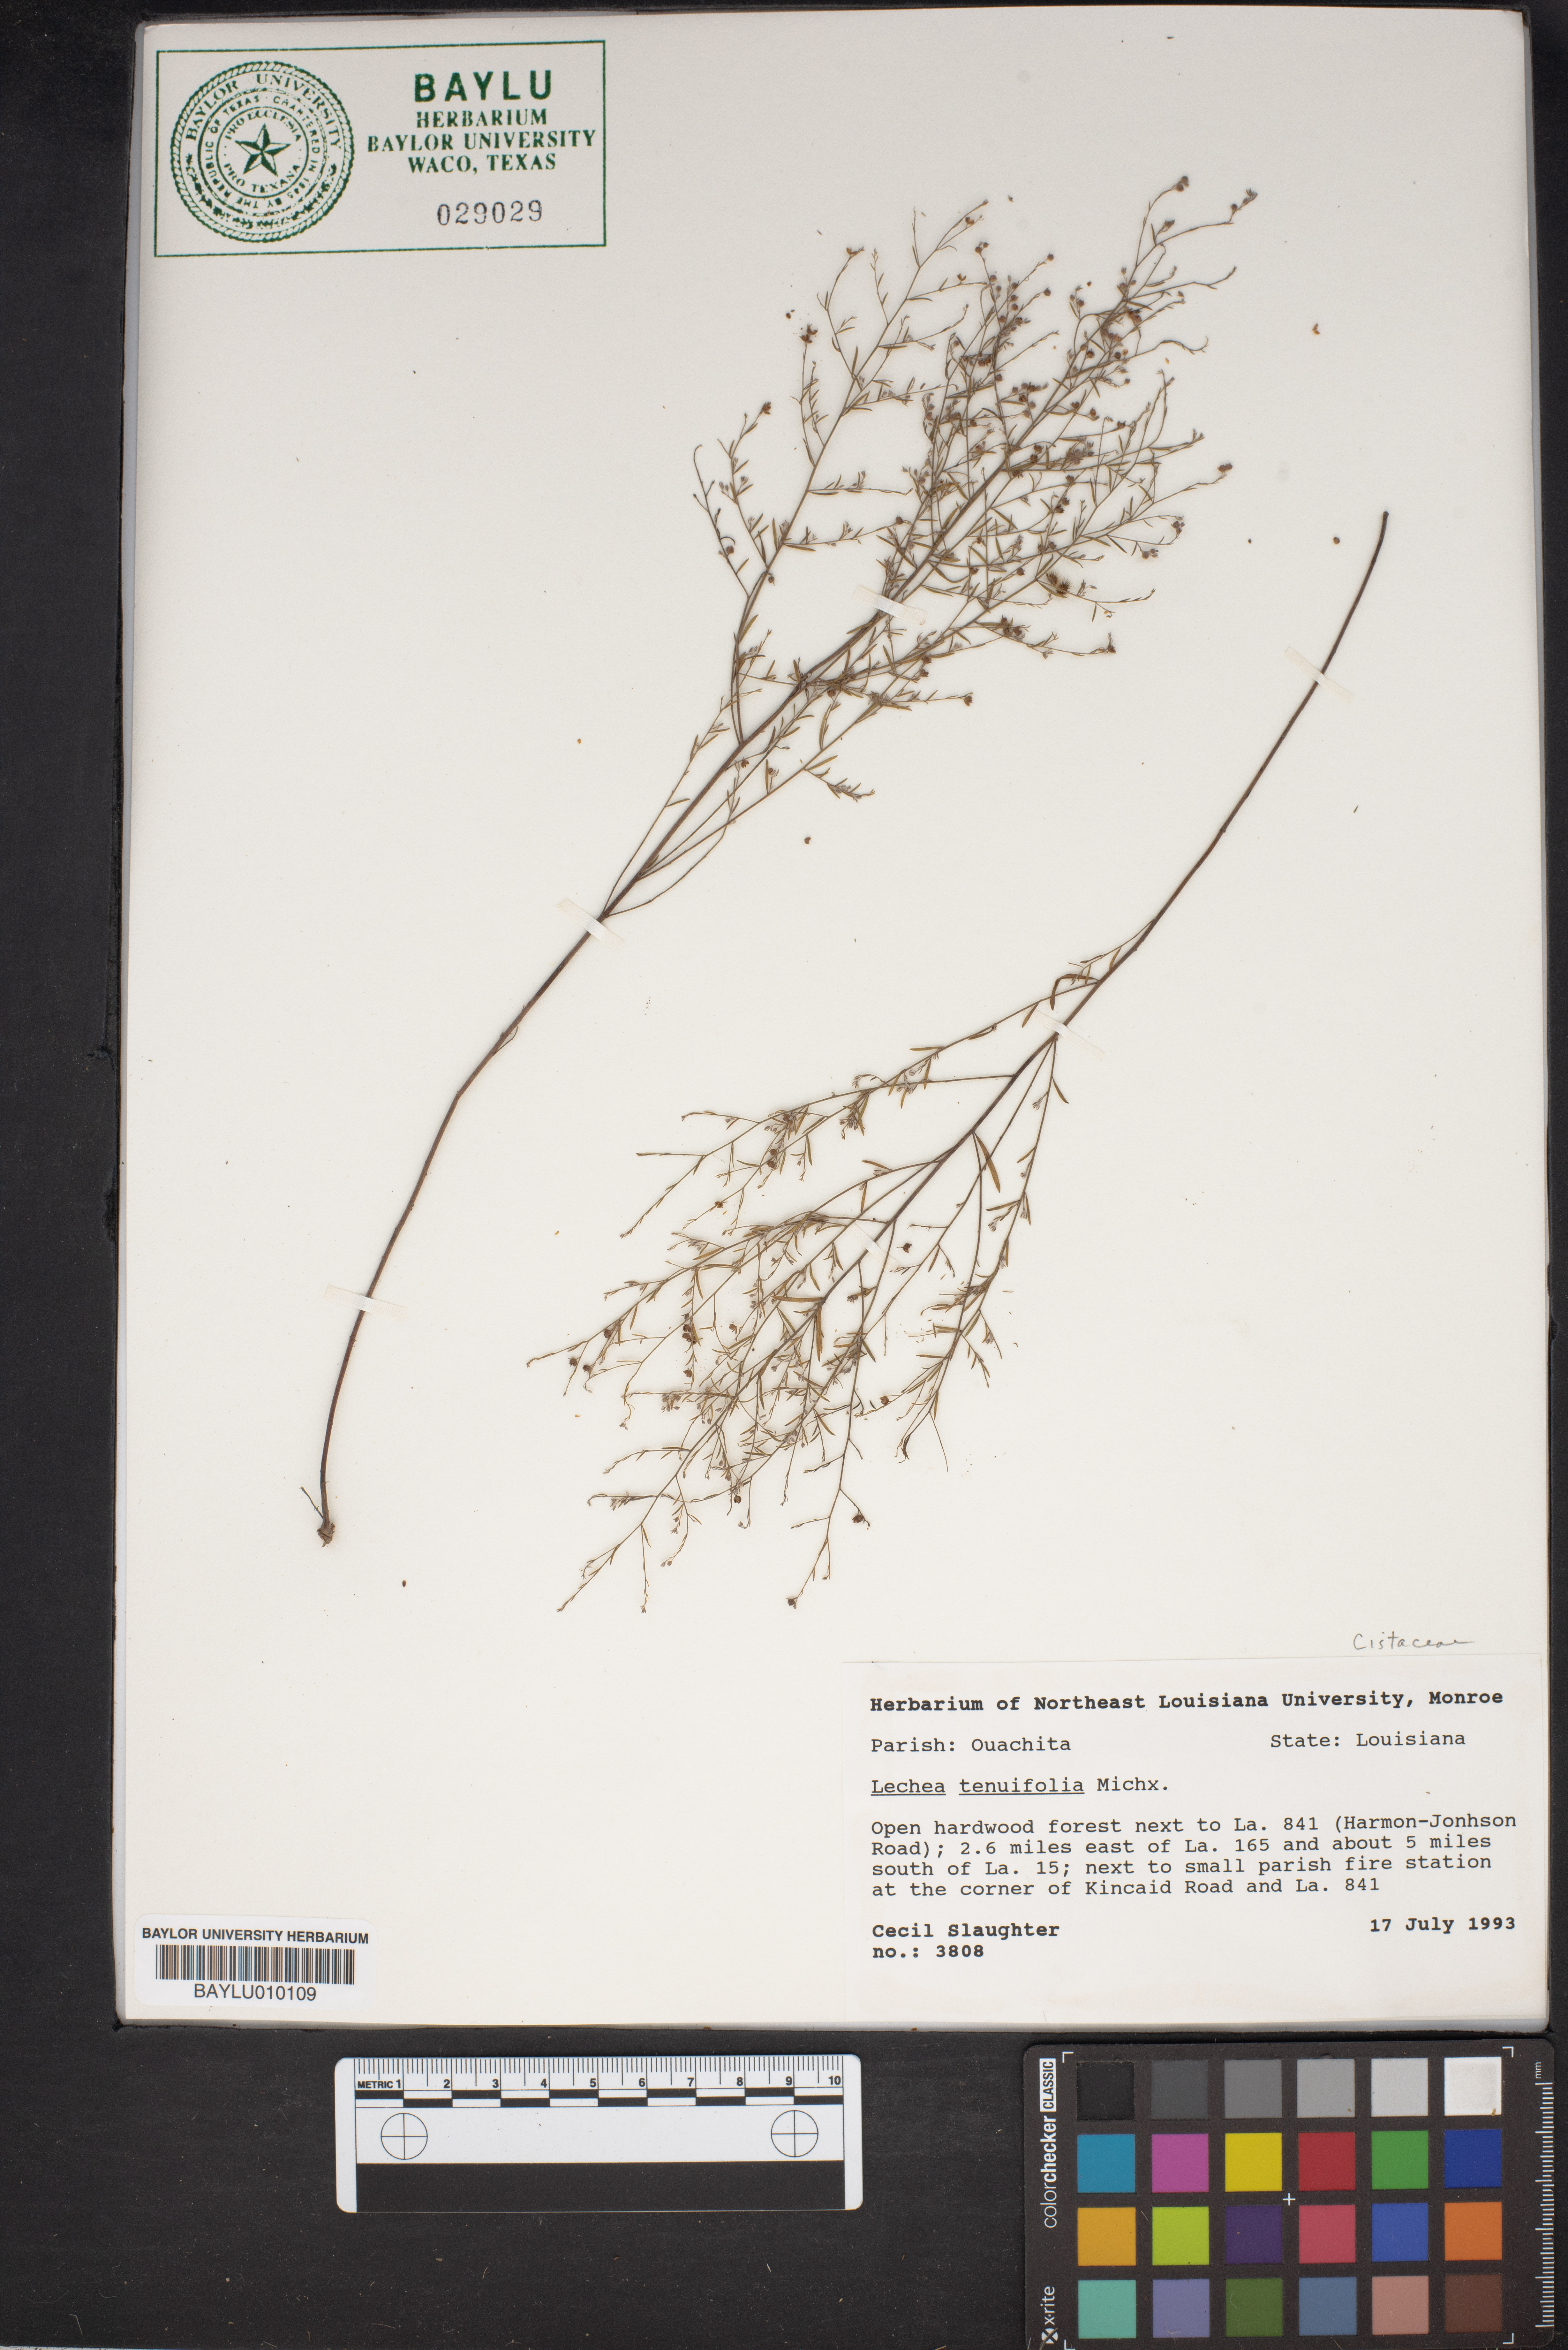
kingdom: Plantae
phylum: Tracheophyta
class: Magnoliopsida
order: Malvales
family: Cistaceae
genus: Lechea
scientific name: Lechea tenuifolia
